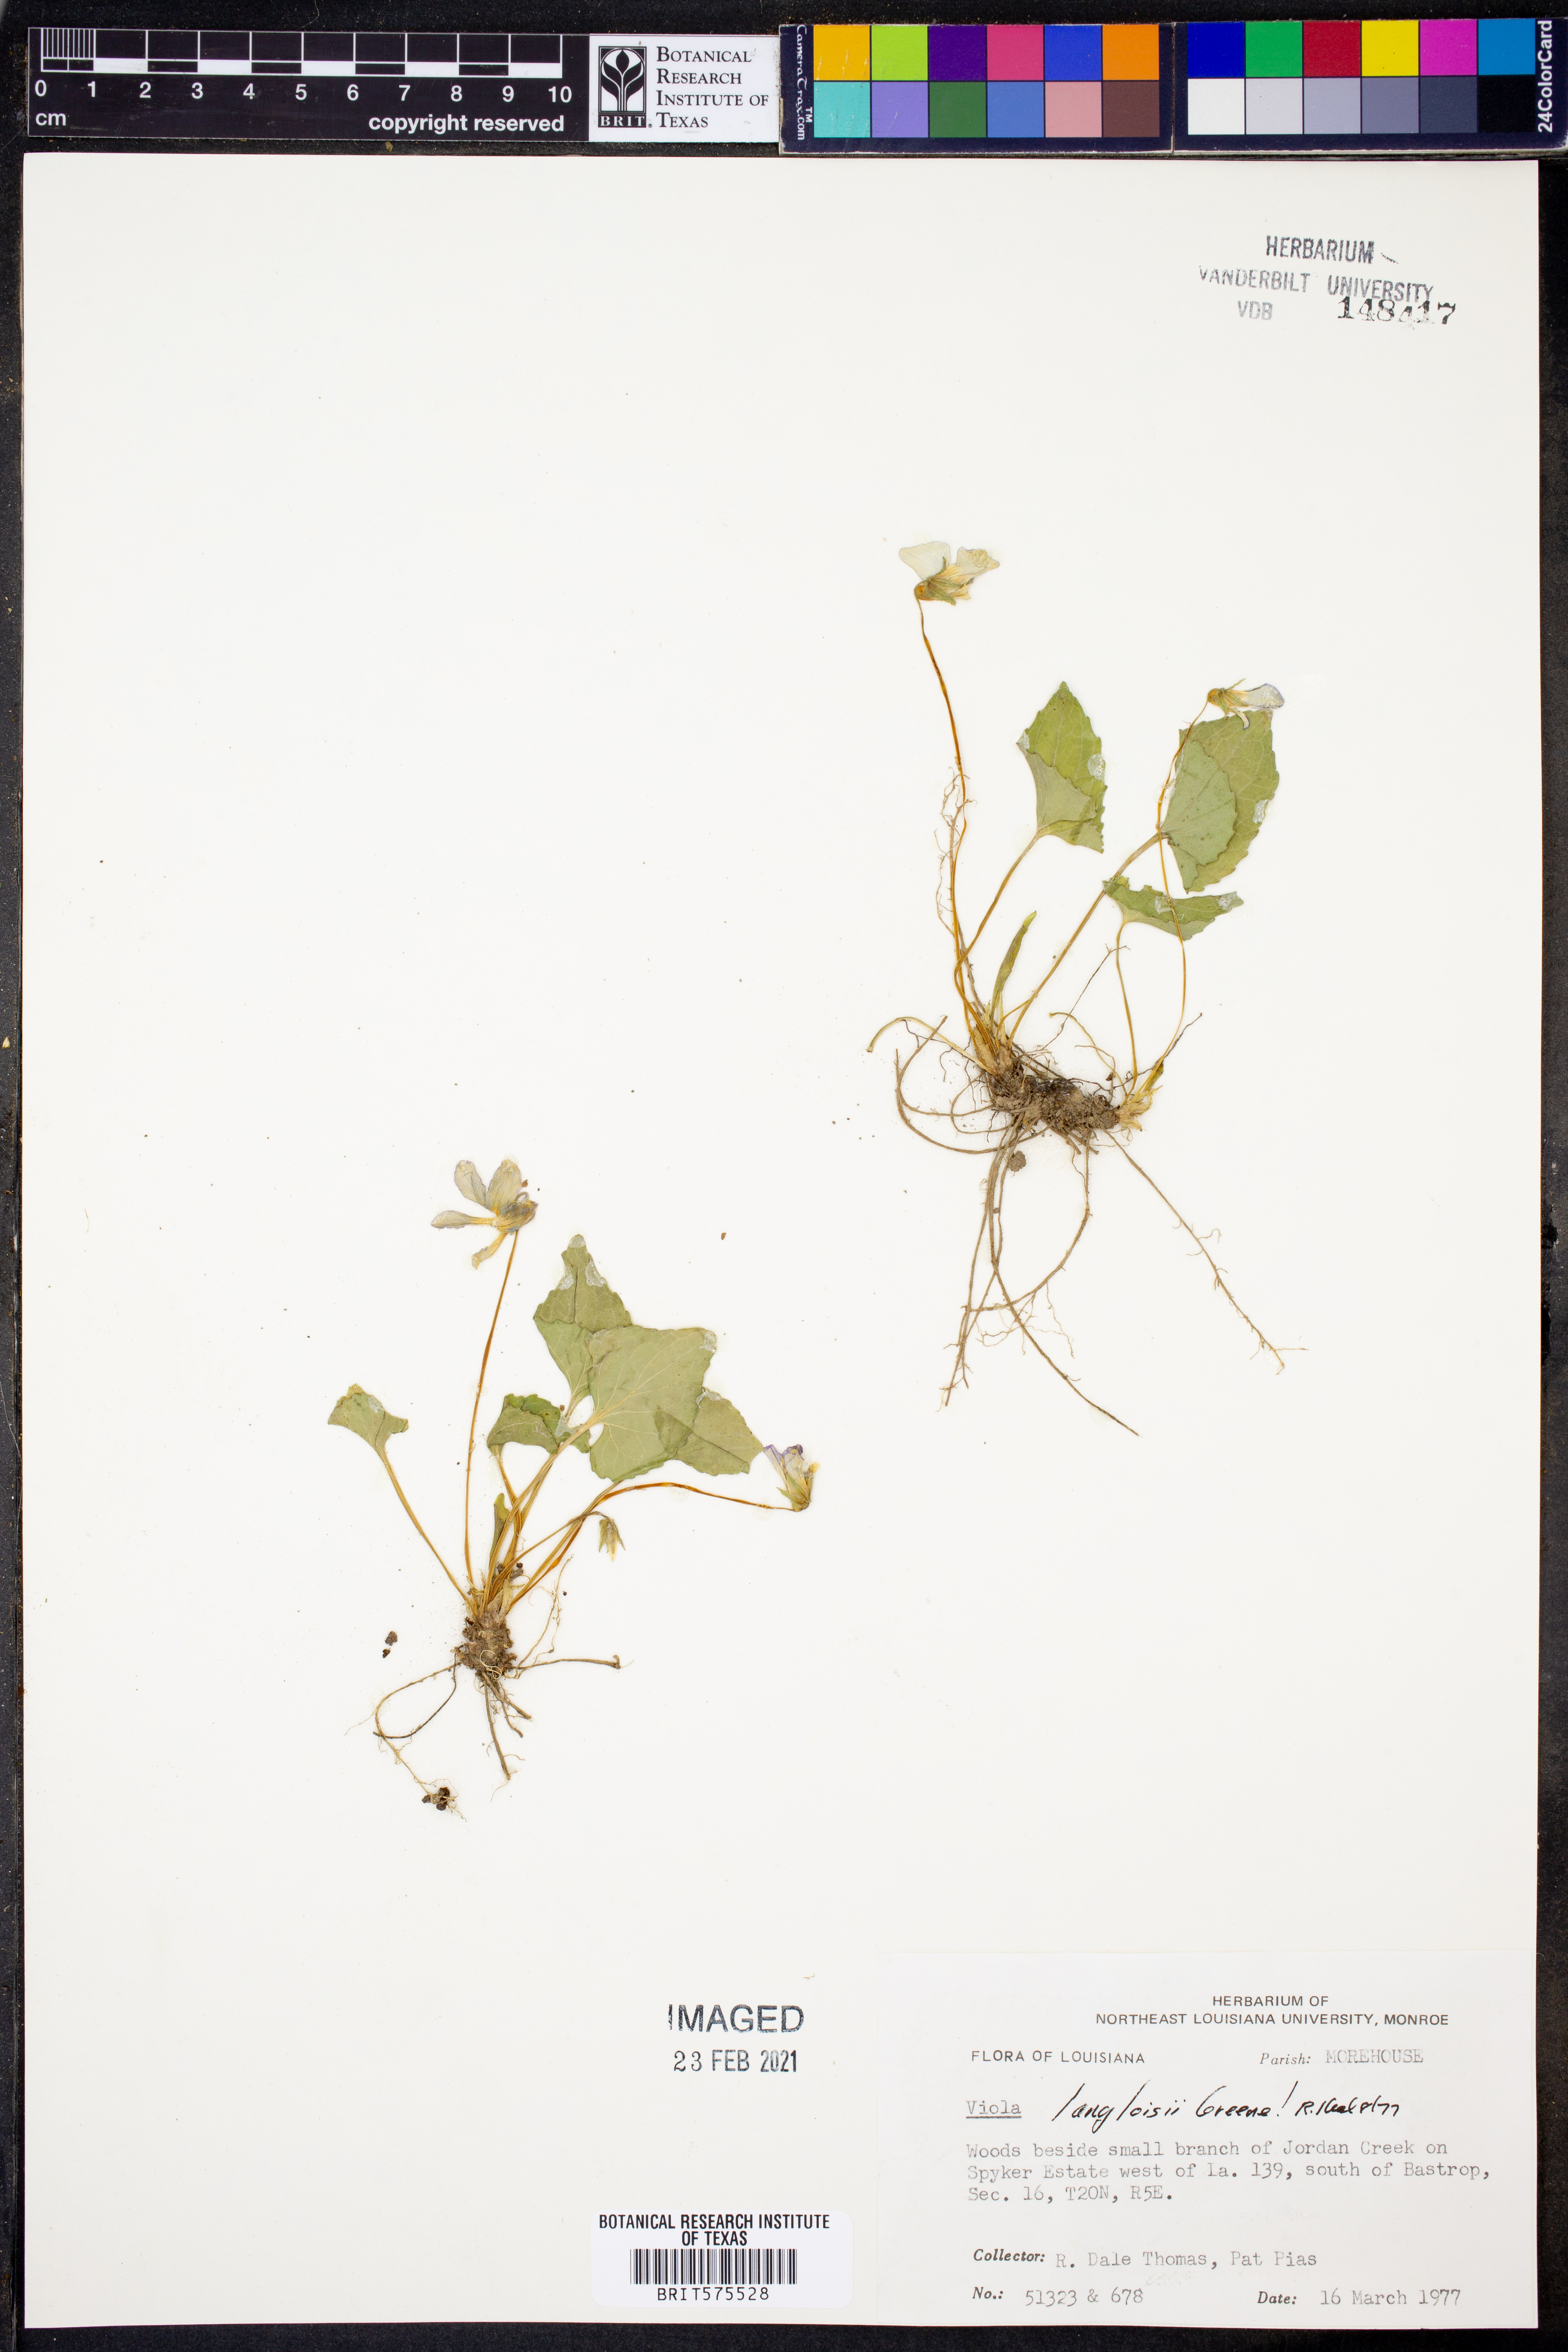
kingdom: Plantae
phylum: Tracheophyta
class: Magnoliopsida
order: Malpighiales
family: Violaceae
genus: Viola
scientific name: Viola langloisii
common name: Langlois' violet
